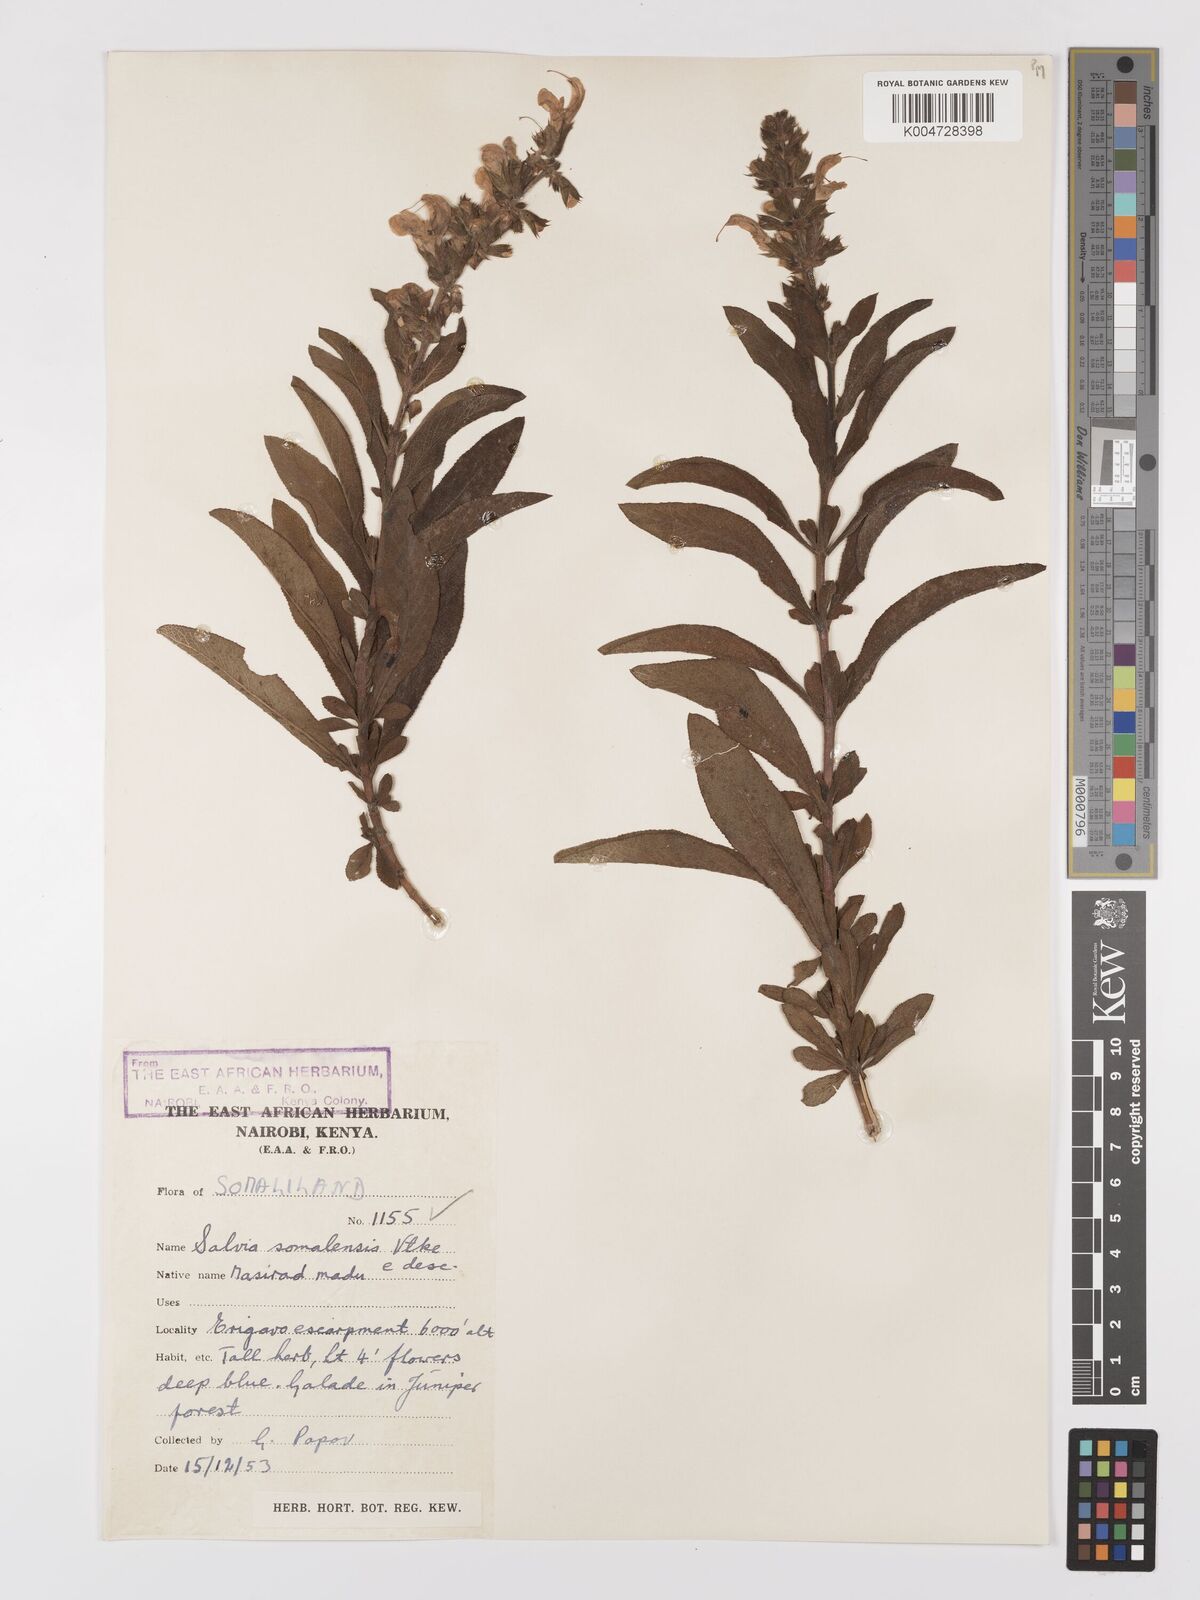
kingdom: Plantae
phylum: Tracheophyta
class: Magnoliopsida
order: Lamiales
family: Lamiaceae
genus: Salvia
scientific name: Salvia somalensis
